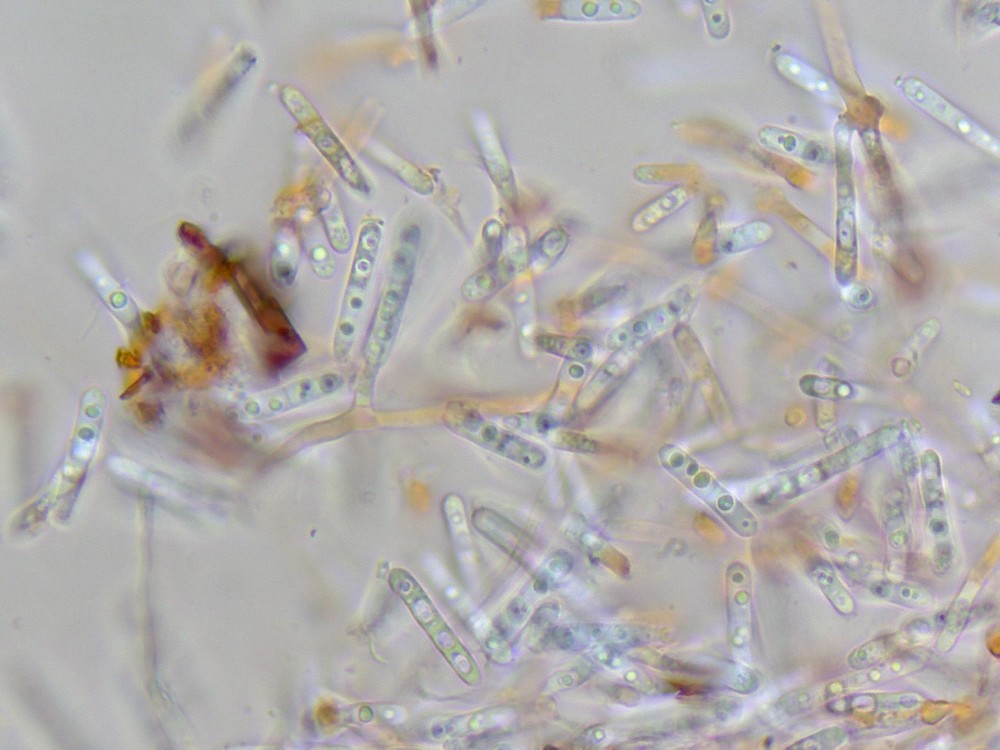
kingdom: Fungi
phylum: Ascomycota
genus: Hormiactella
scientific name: Hormiactella
